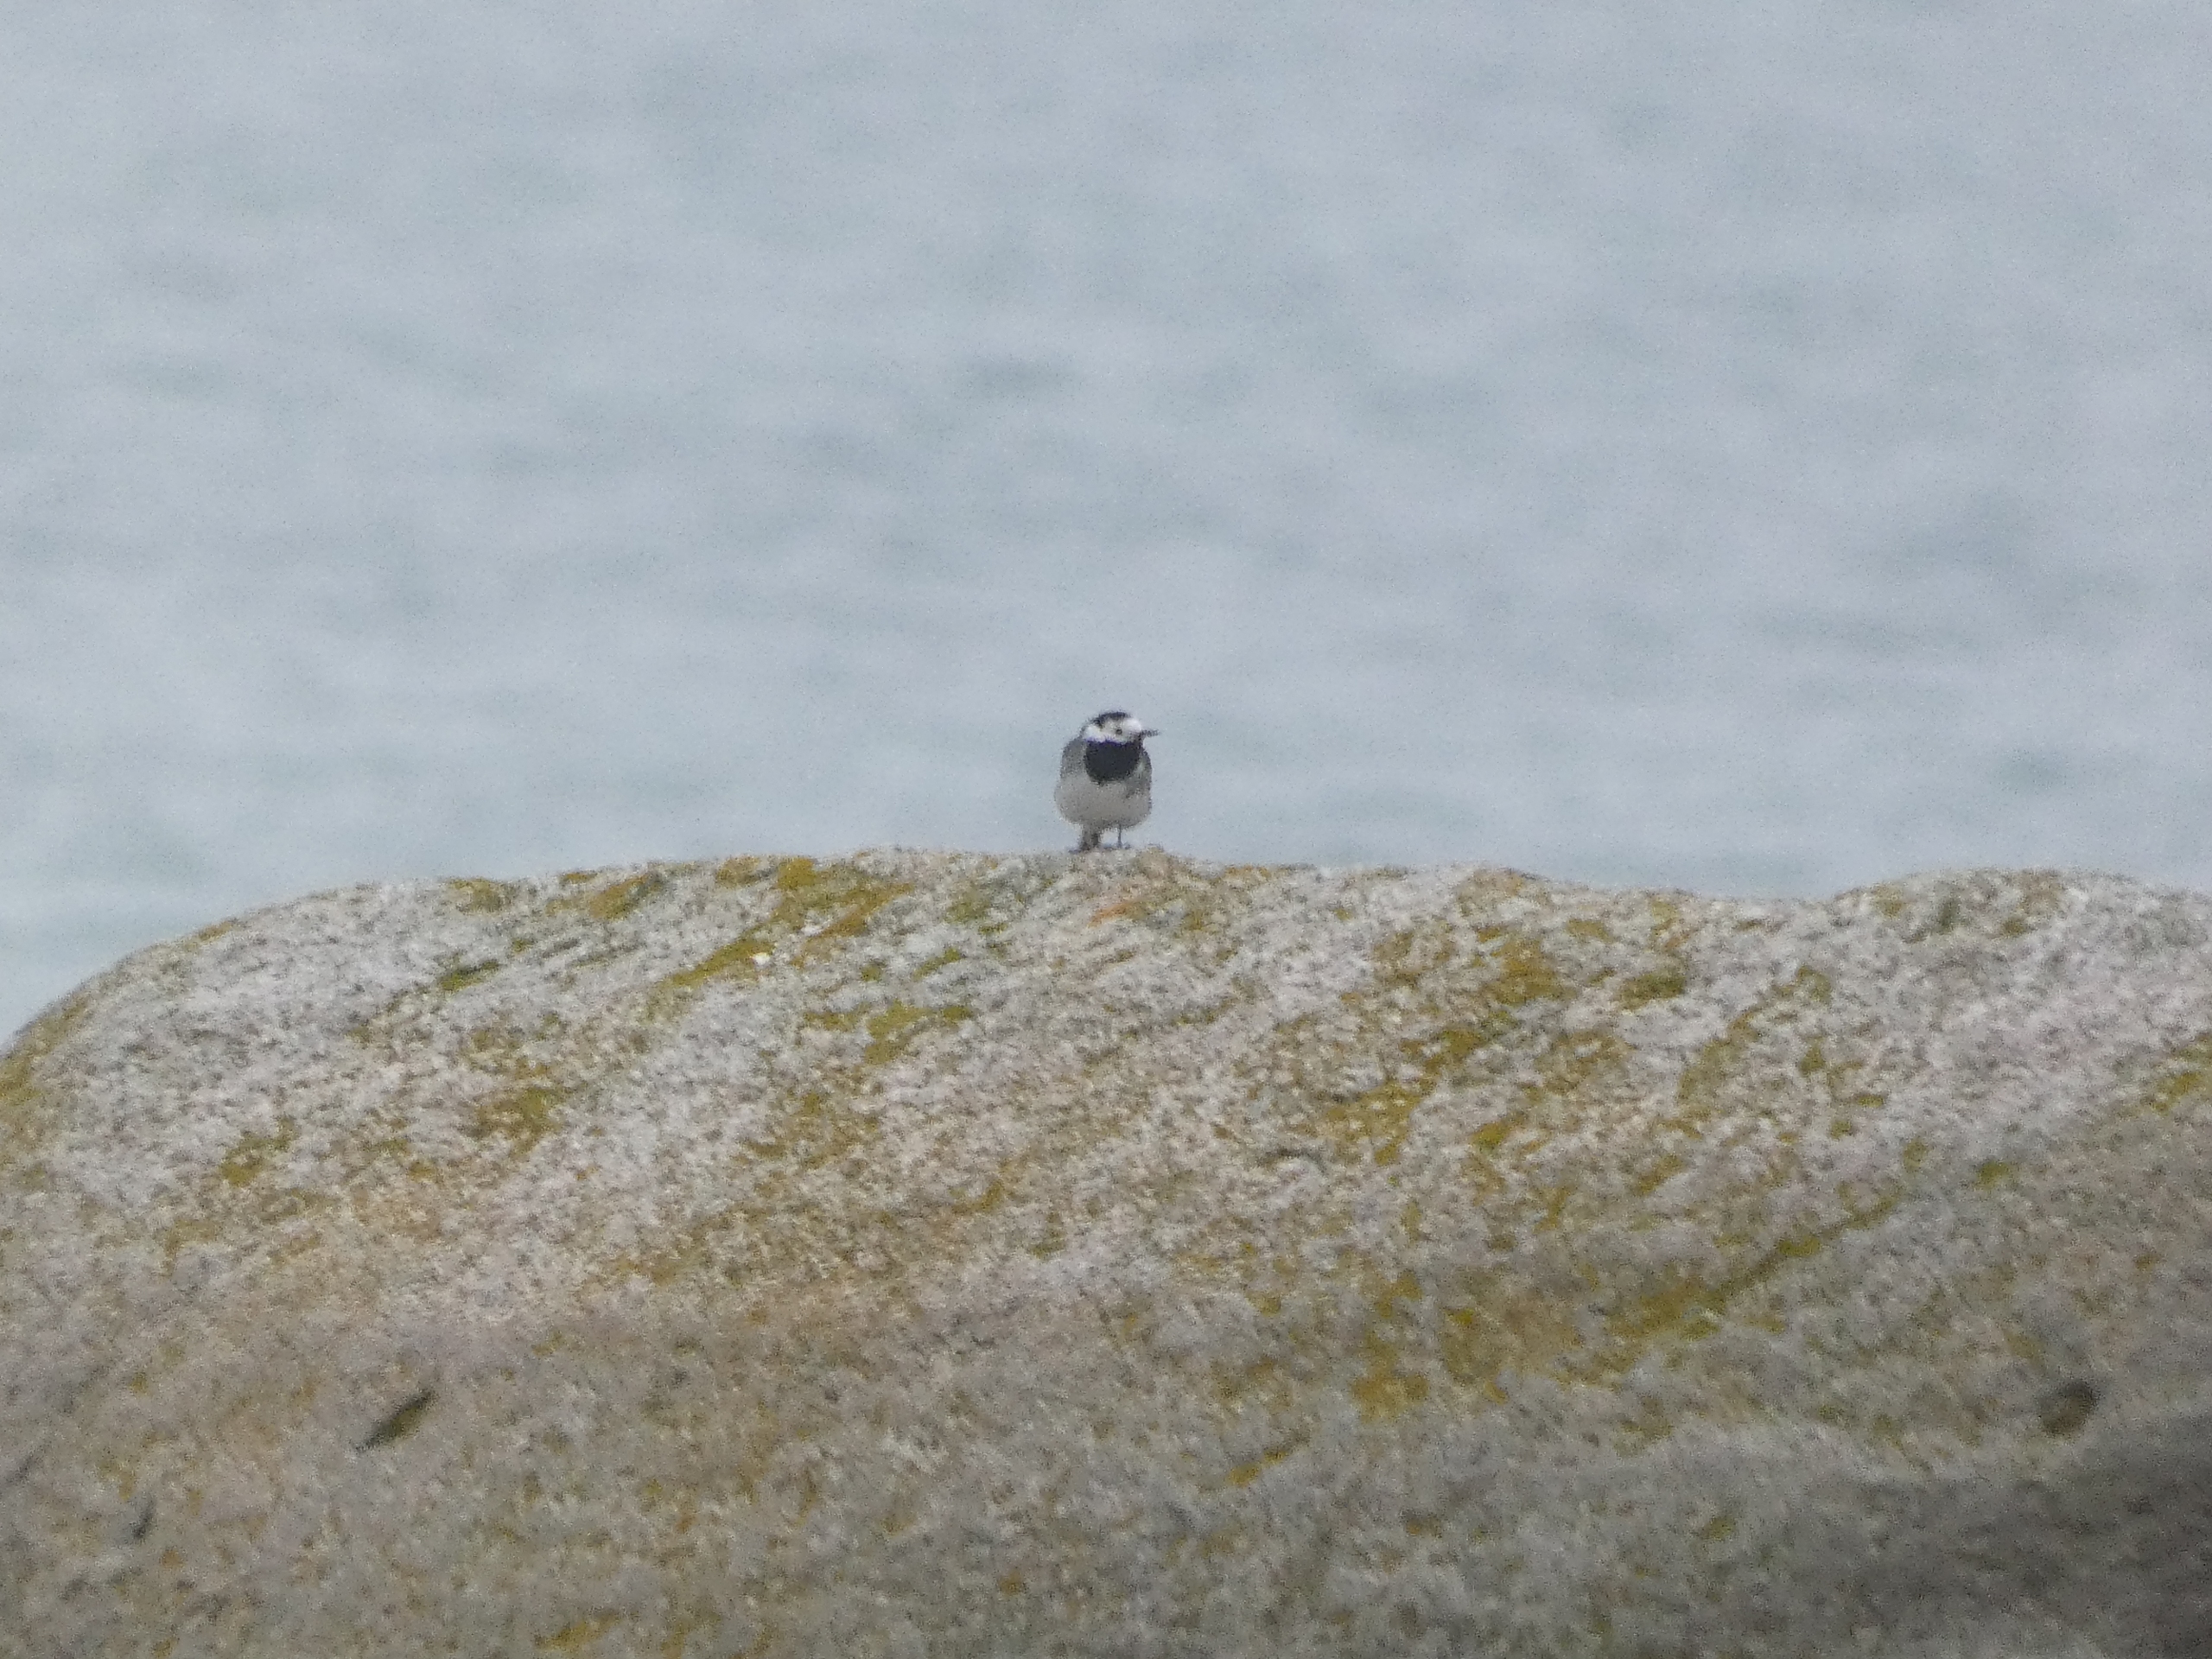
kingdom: Animalia
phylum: Chordata
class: Aves
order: Passeriformes
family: Motacillidae
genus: Motacilla
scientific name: Motacilla alba
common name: Hvid vipstjert
